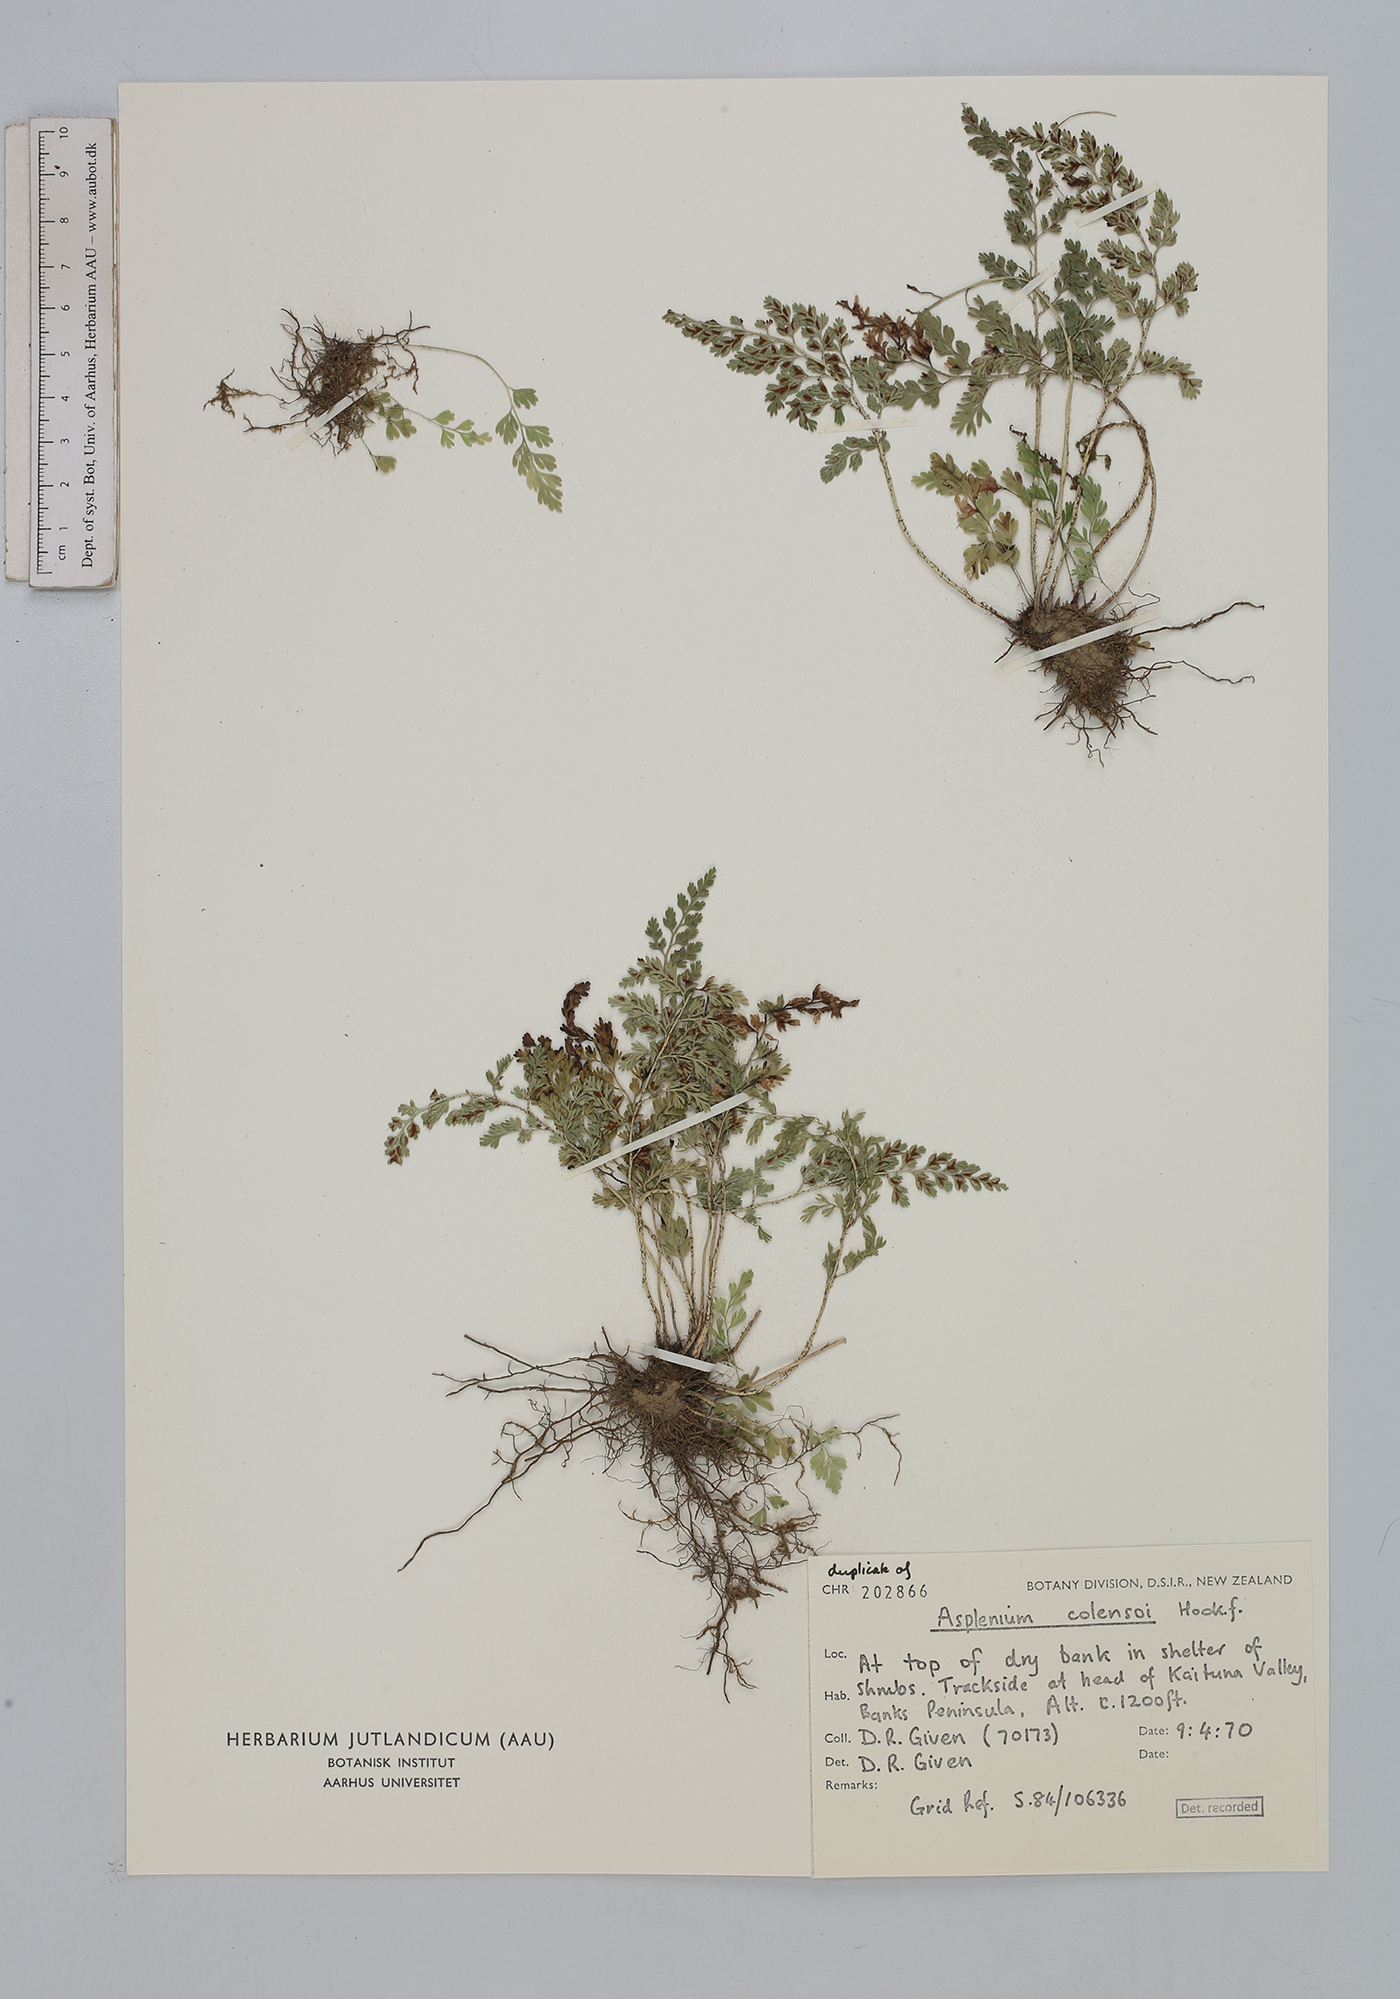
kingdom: Plantae
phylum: Tracheophyta
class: Polypodiopsida
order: Polypodiales
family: Aspleniaceae
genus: Asplenium
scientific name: Asplenium hookerianum
